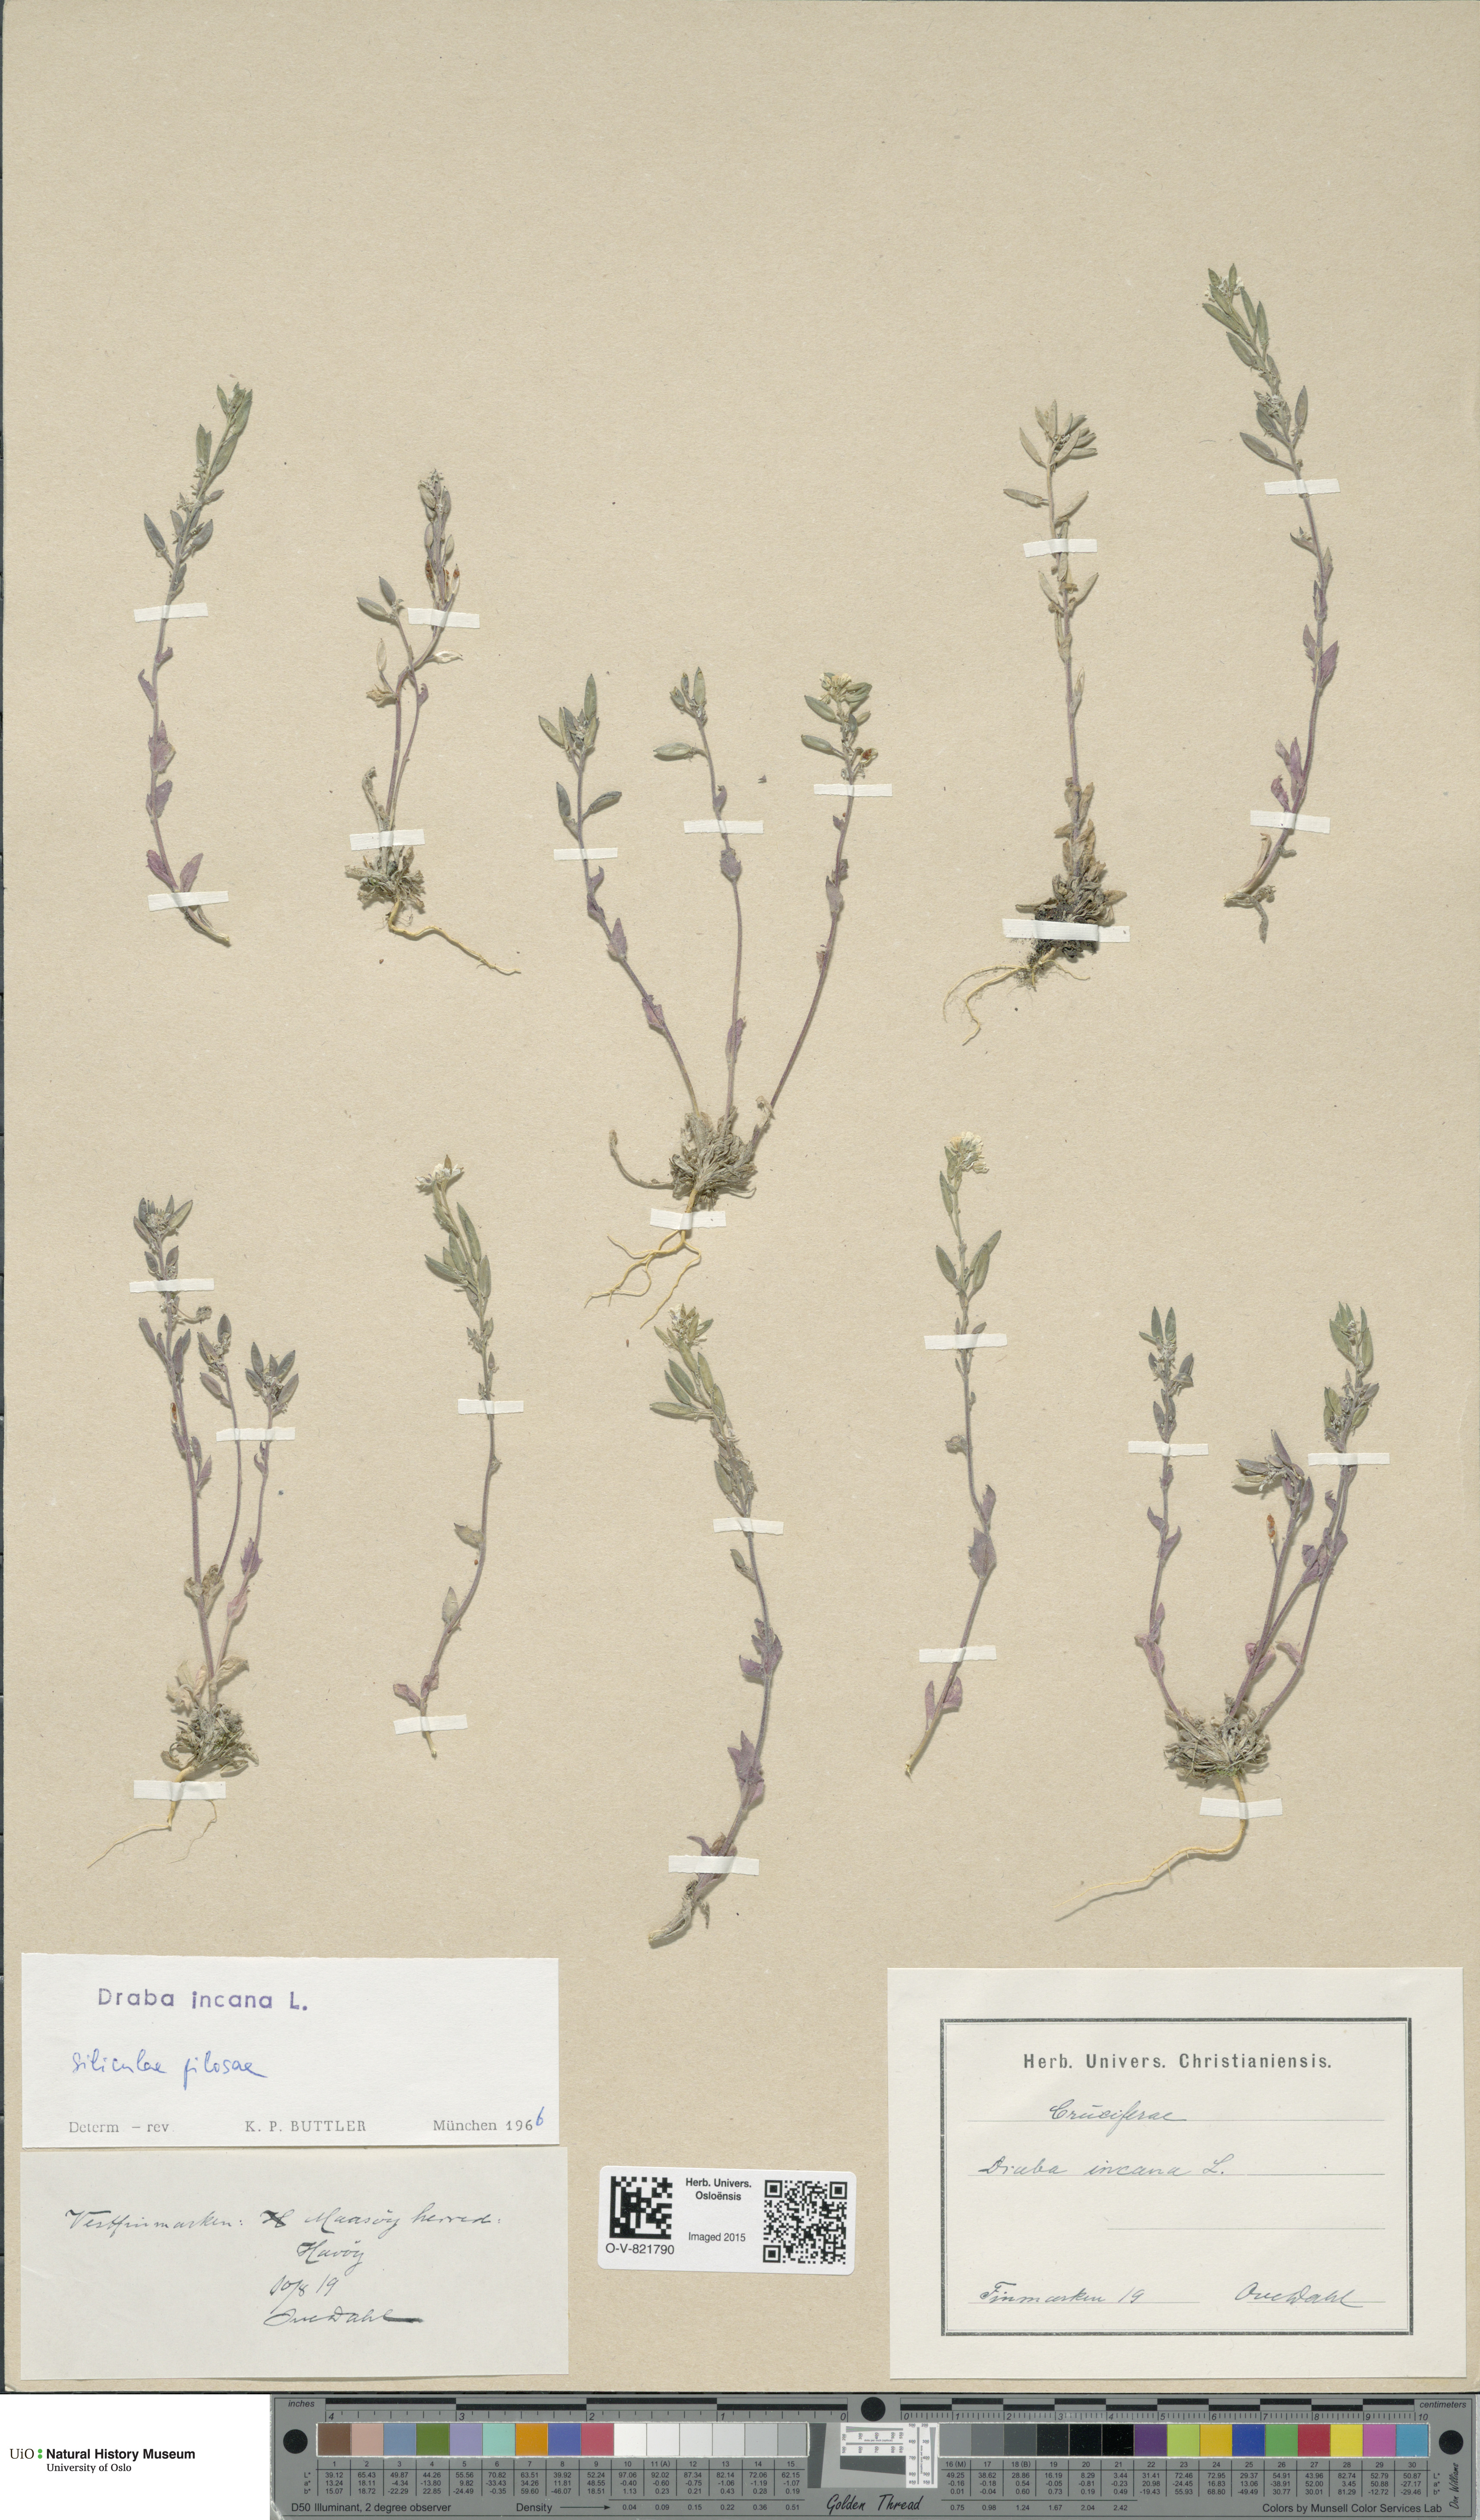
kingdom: Plantae
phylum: Tracheophyta
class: Magnoliopsida
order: Brassicales
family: Brassicaceae
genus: Draba
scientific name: Draba incana
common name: Hoary whitlow-grass
